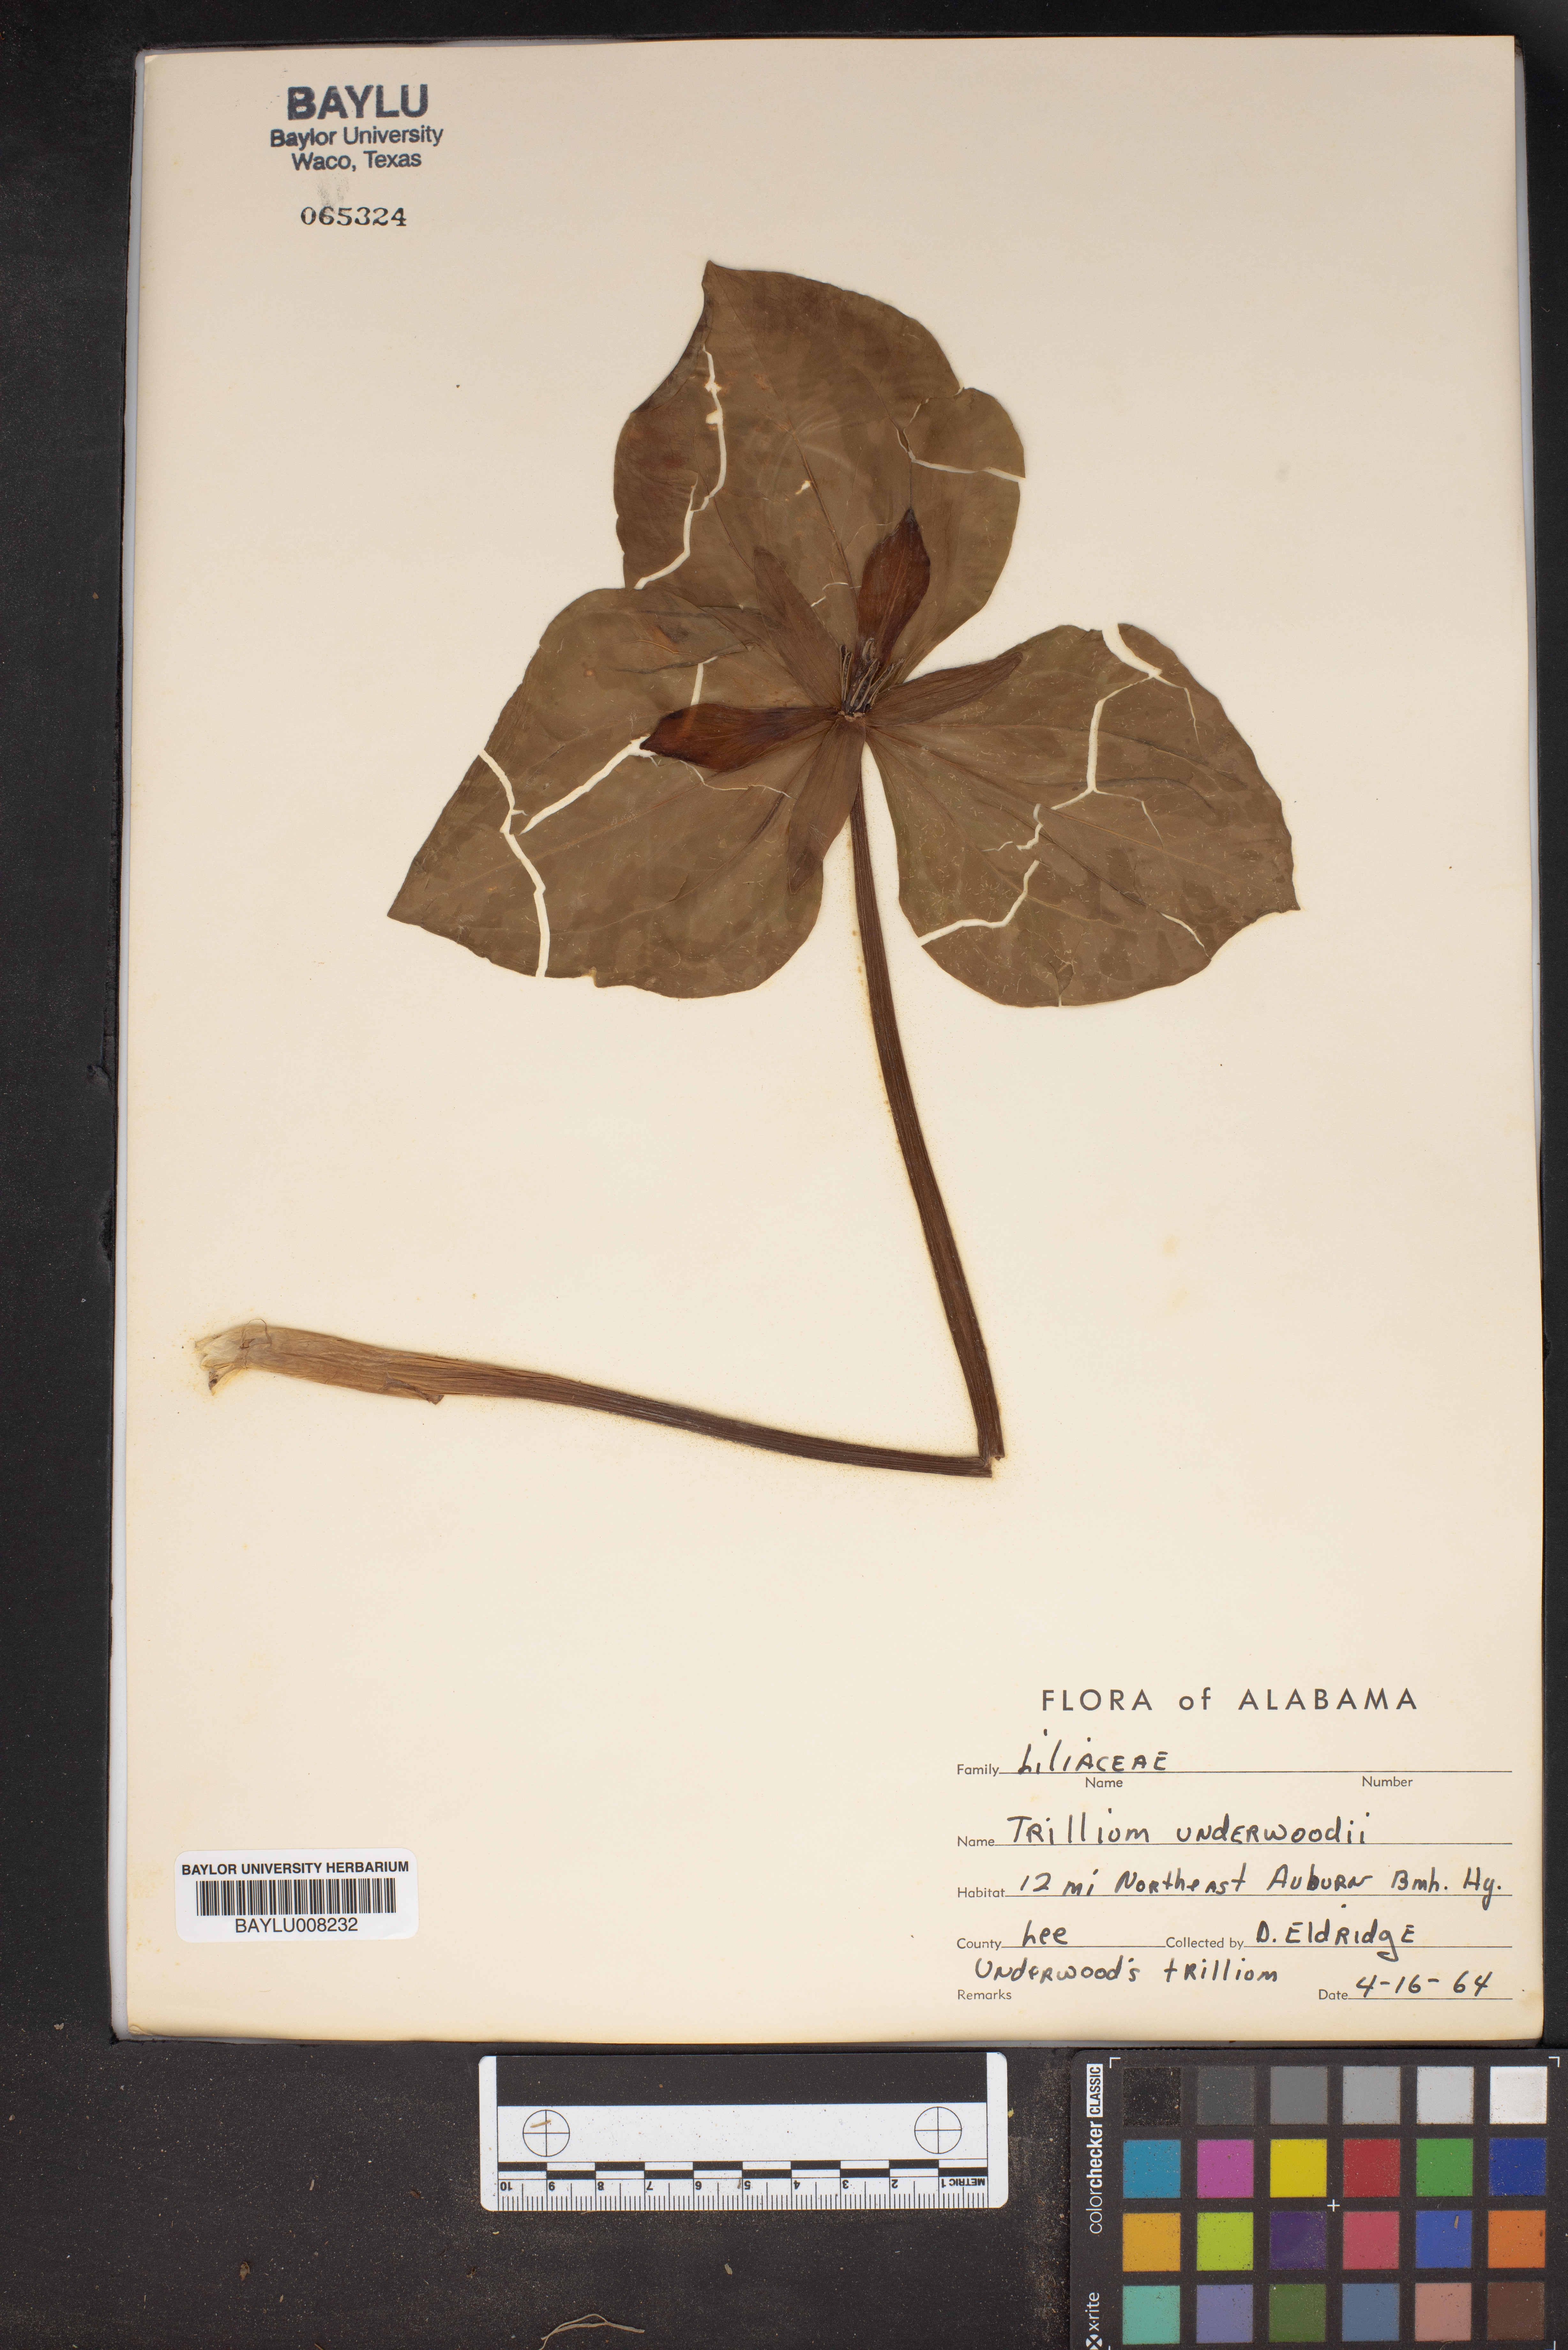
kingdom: Plantae
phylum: Tracheophyta
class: Liliopsida
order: Liliales
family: Melanthiaceae
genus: Trillium
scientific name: Trillium underwoodii
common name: Longbract wakerobin
